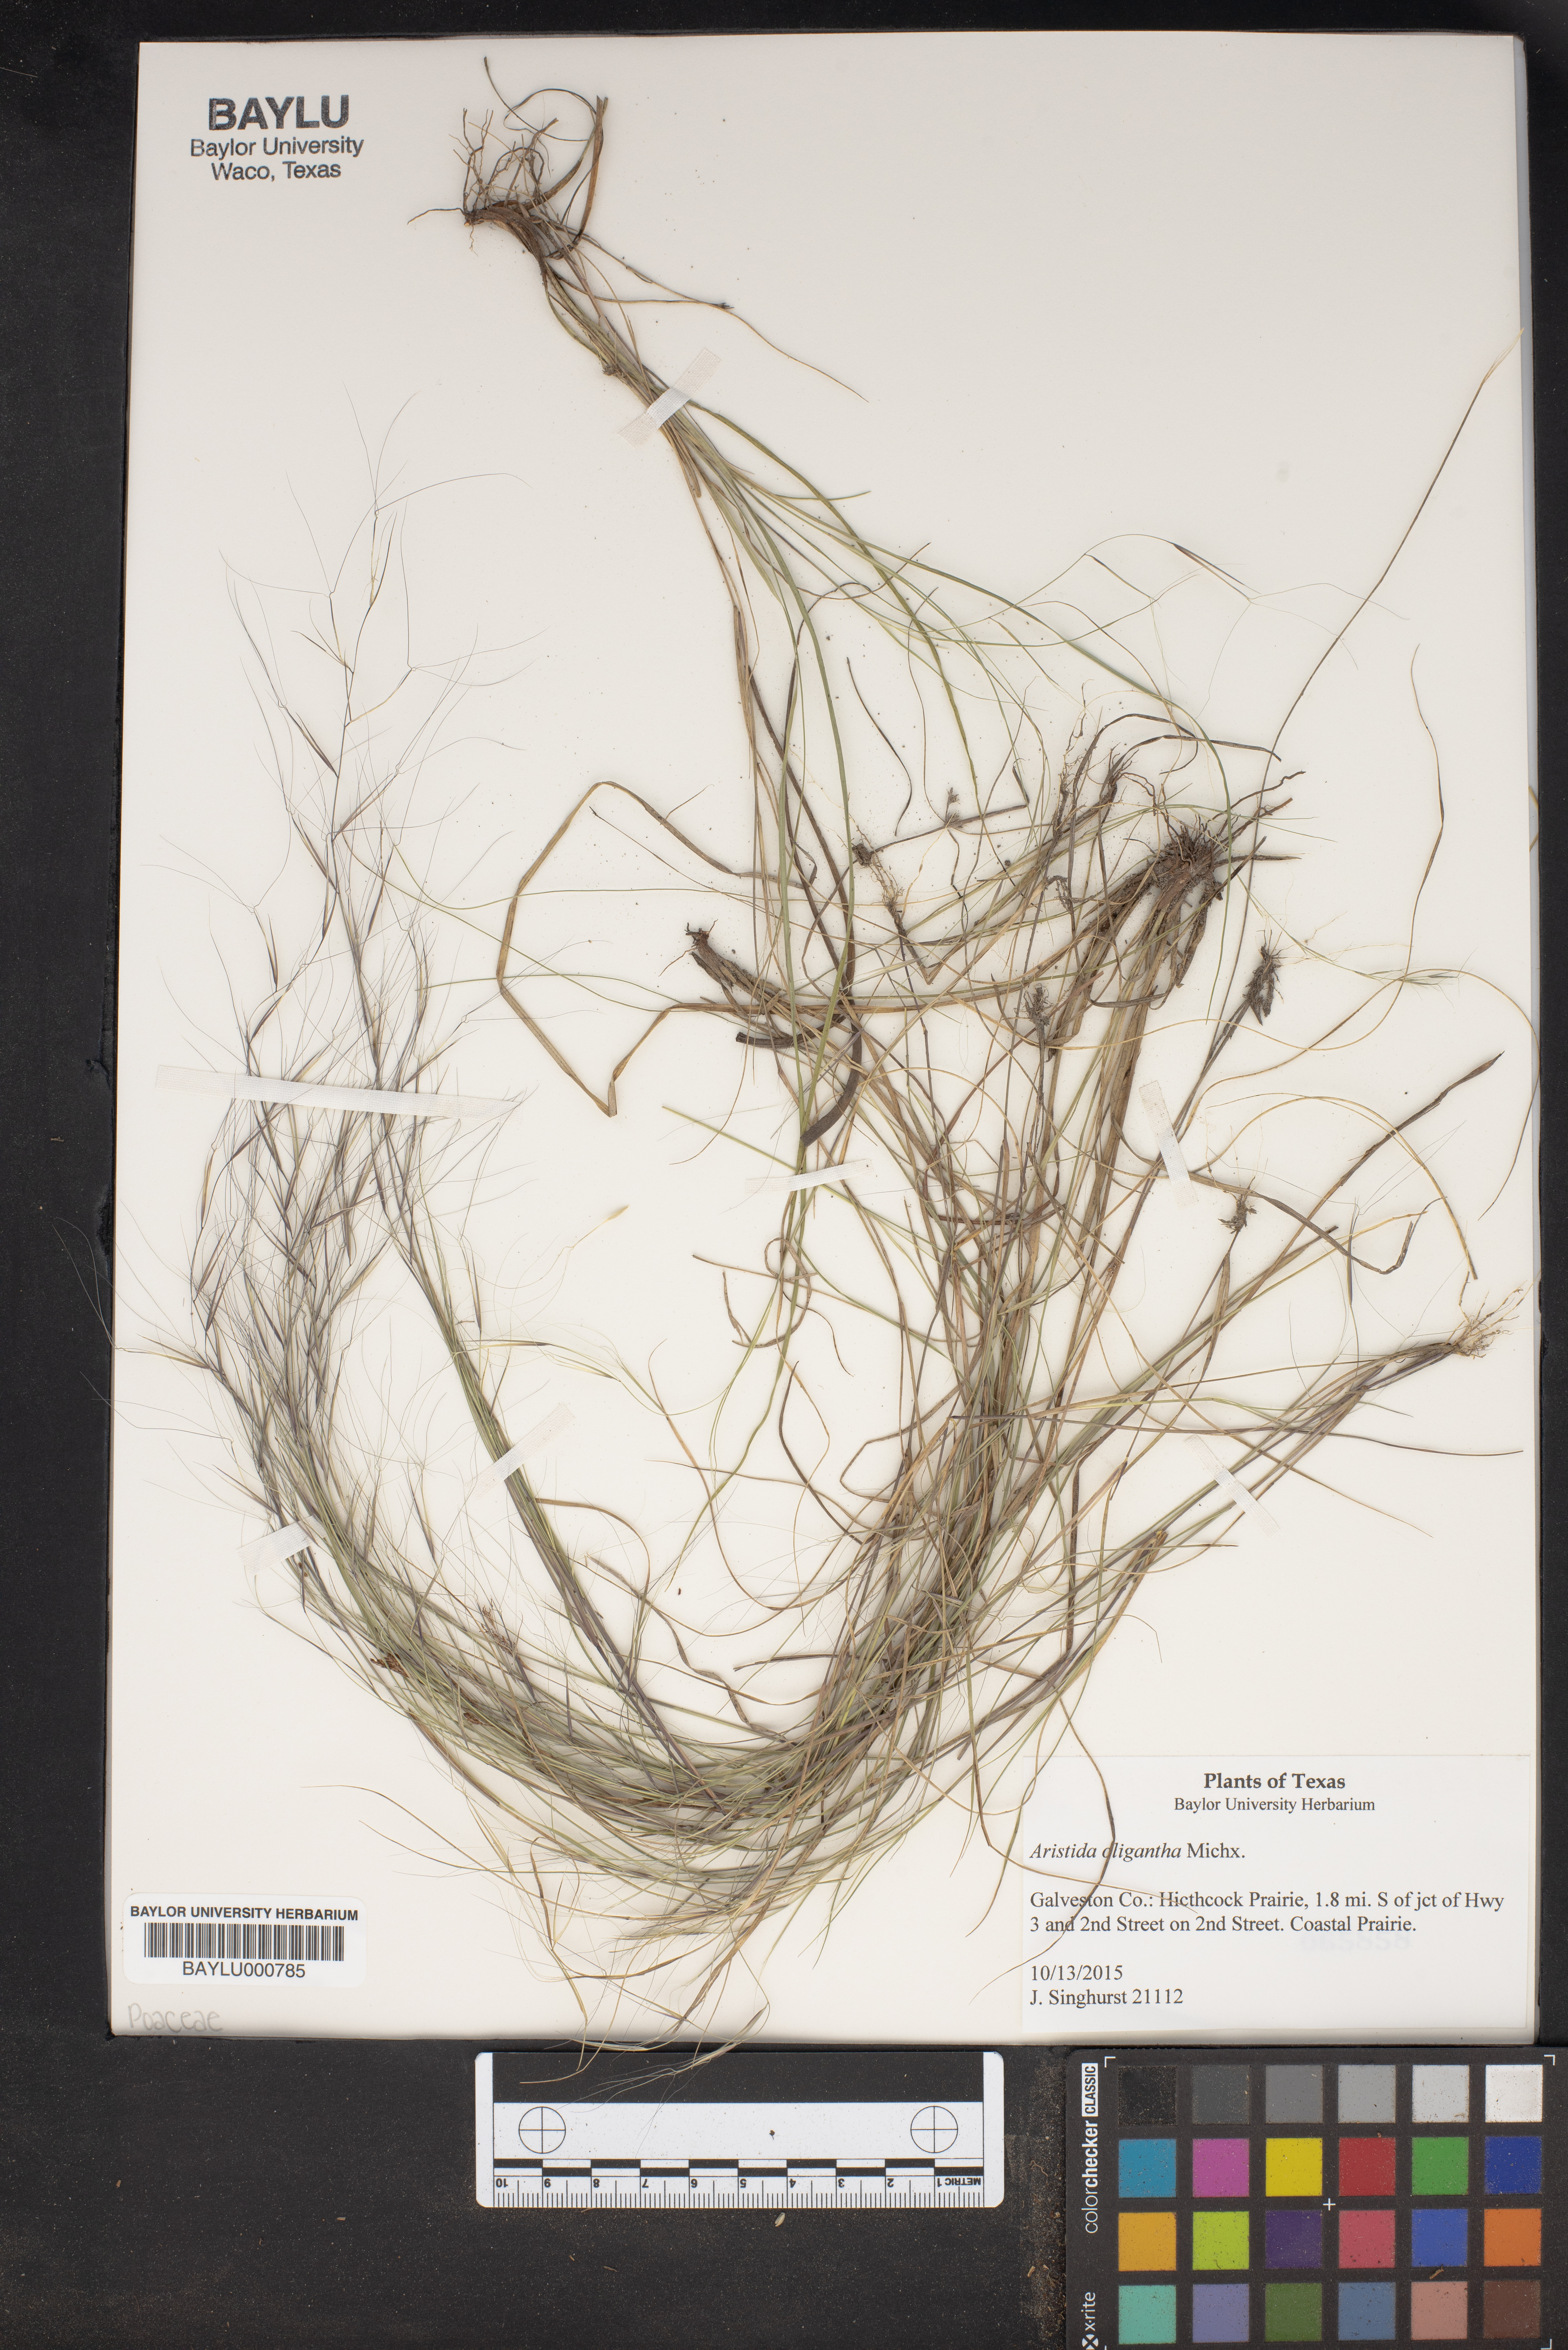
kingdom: Plantae
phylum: Tracheophyta
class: Liliopsida
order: Poales
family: Poaceae
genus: Aristida
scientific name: Aristida oligantha
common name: Few-flowered aristida
